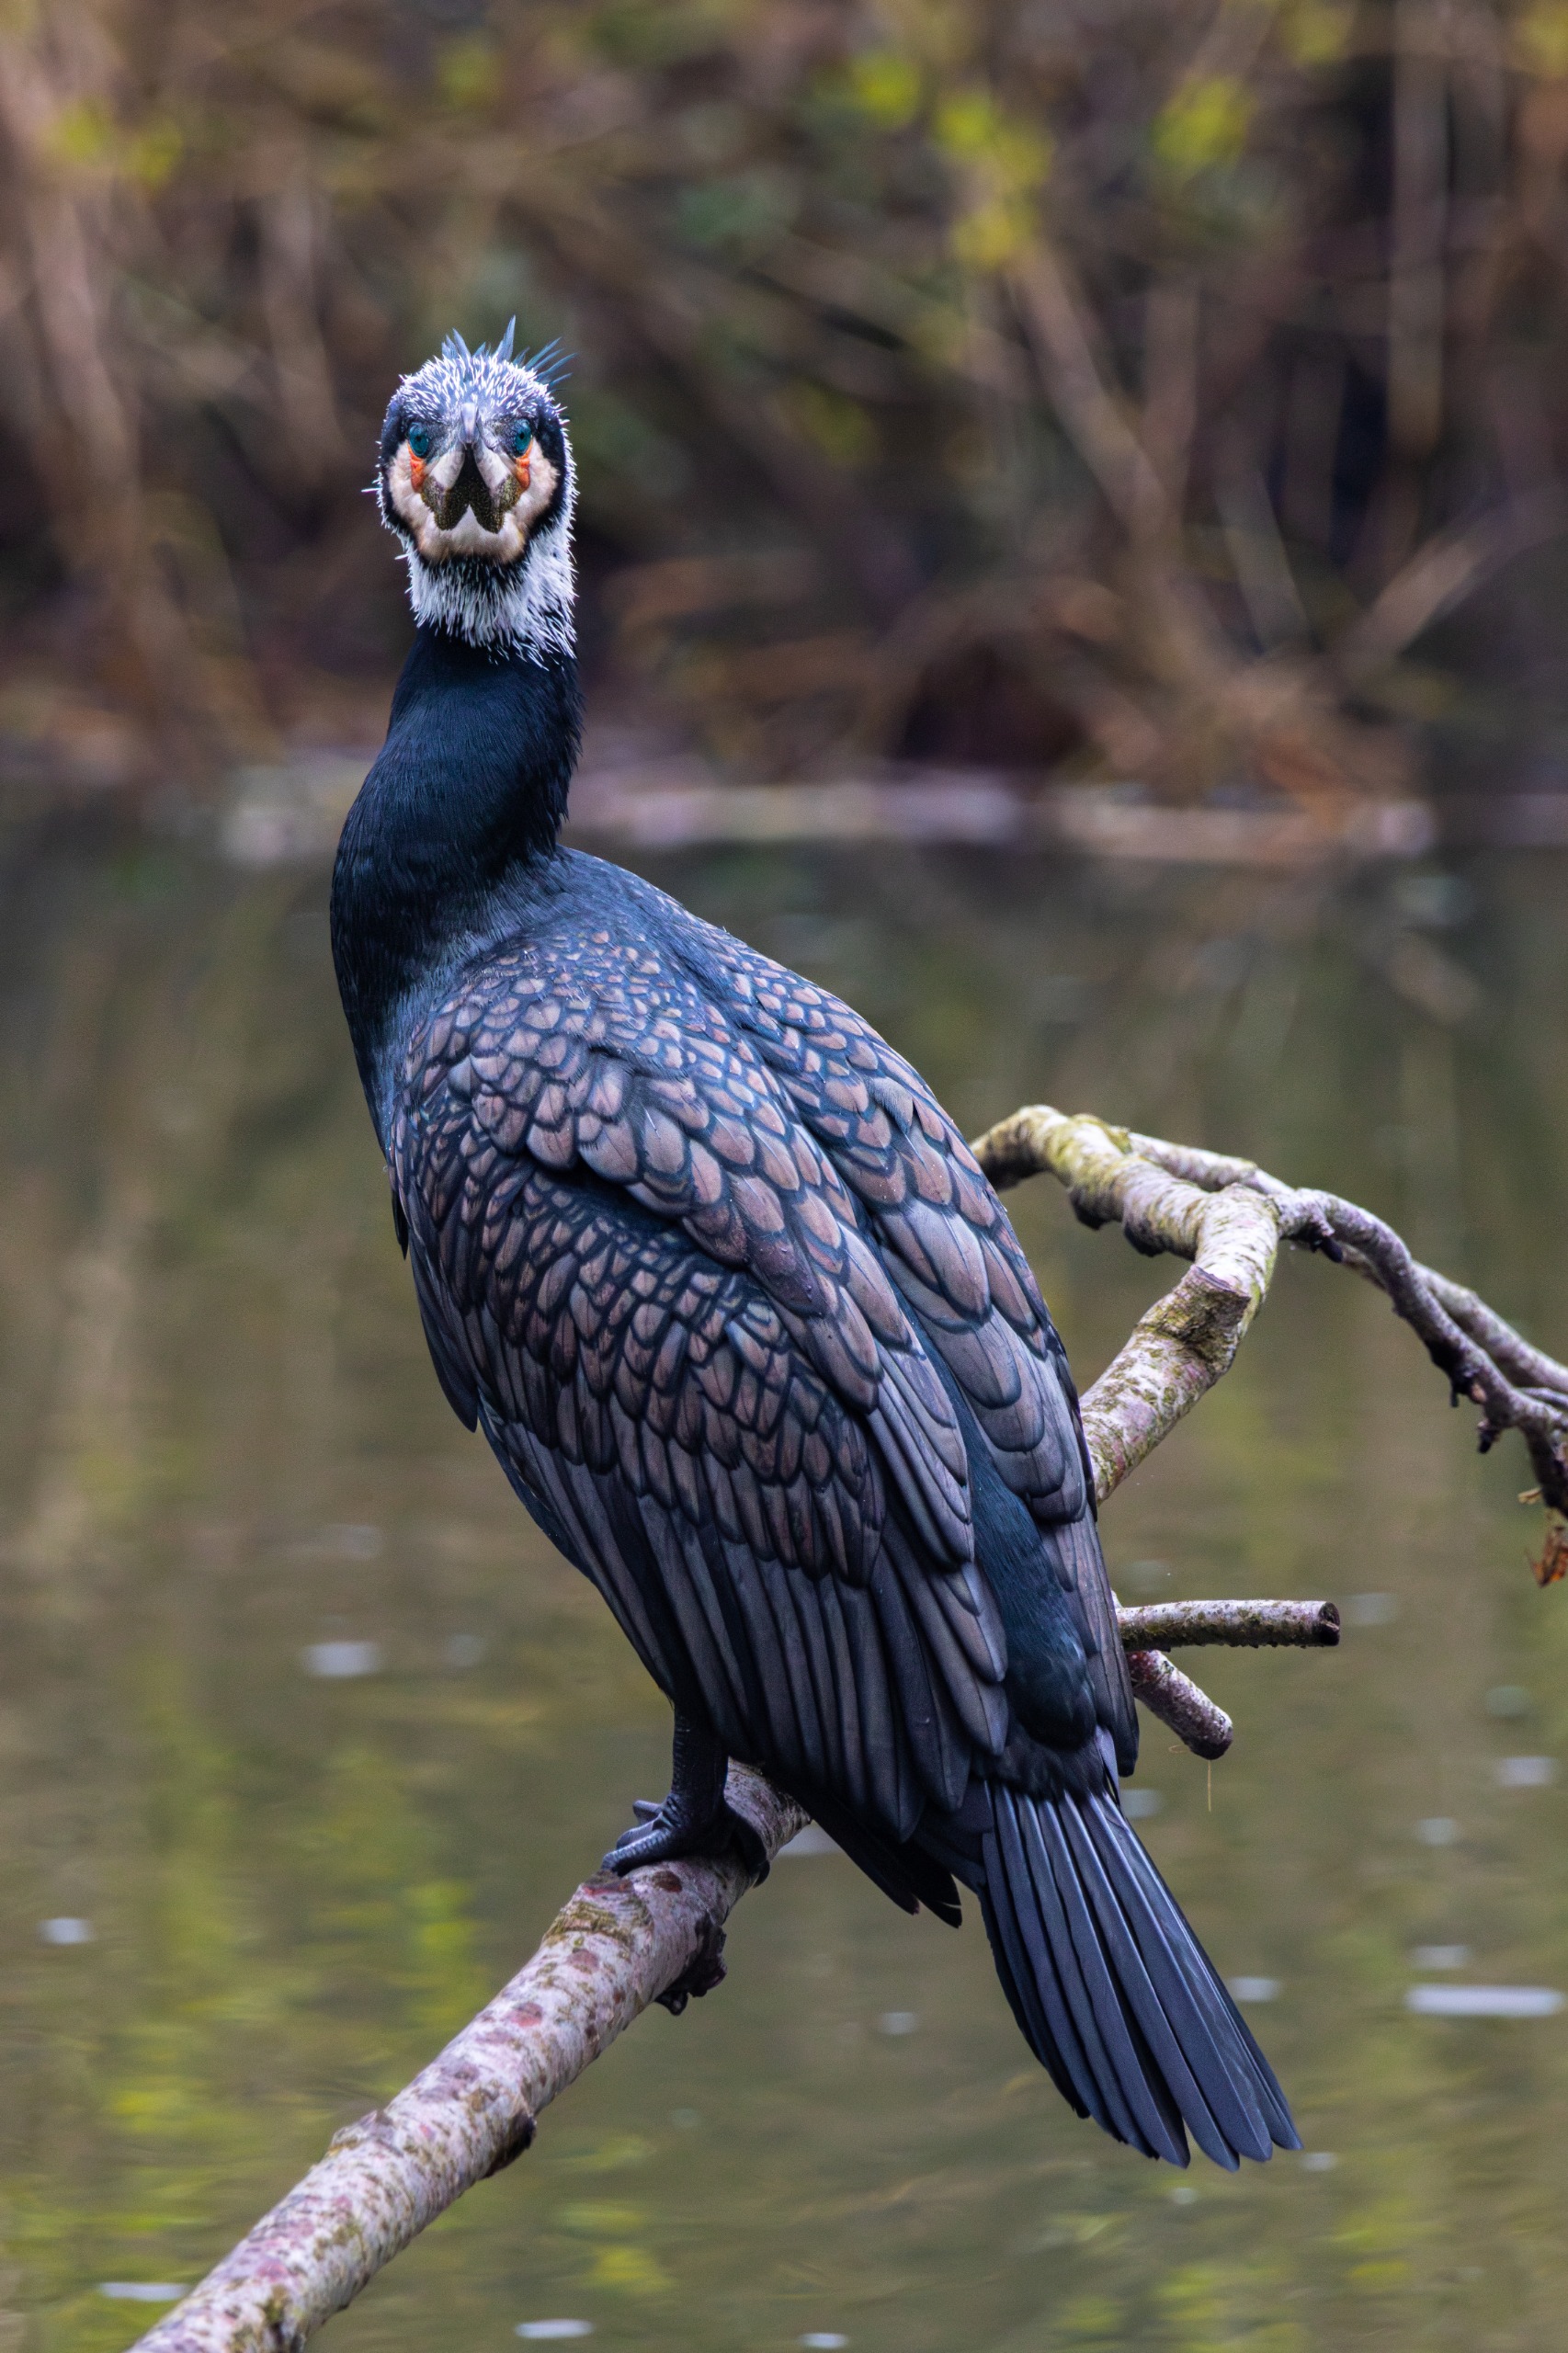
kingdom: Animalia
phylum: Chordata
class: Aves
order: Suliformes
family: Phalacrocoracidae
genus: Phalacrocorax
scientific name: Phalacrocorax carbo
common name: Skarv
